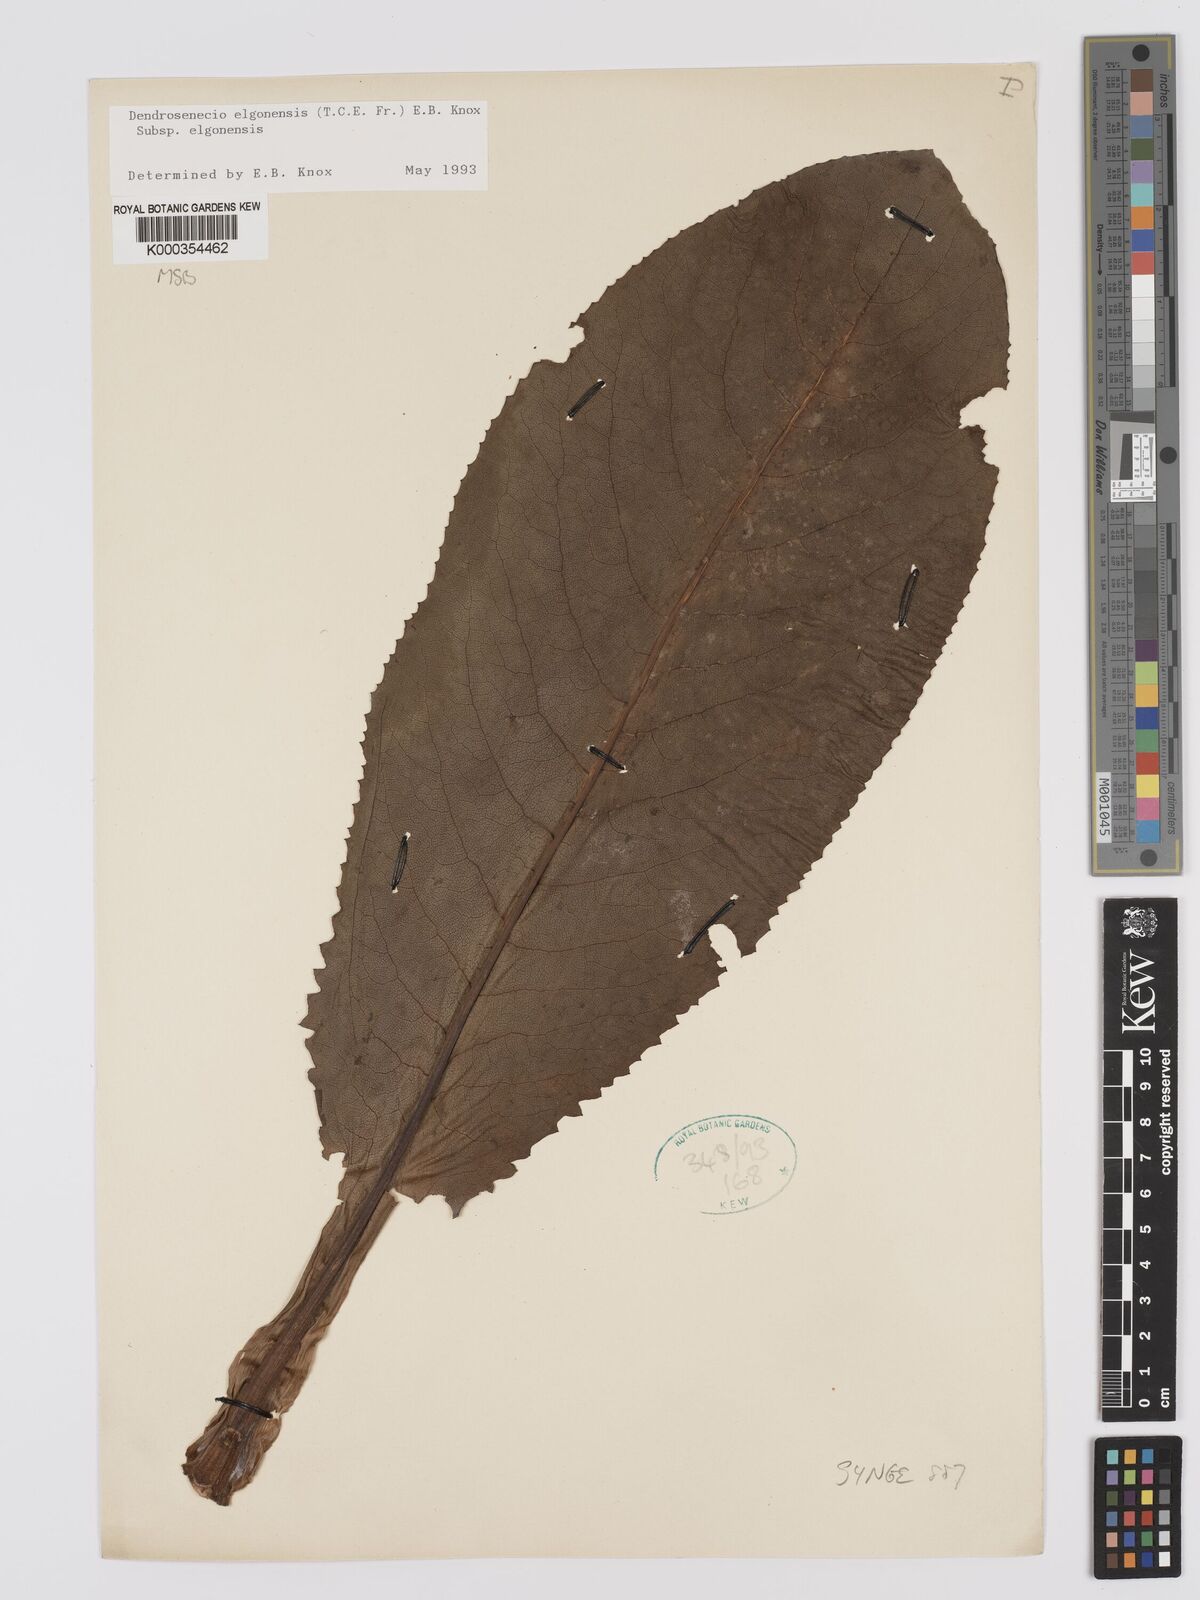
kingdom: Plantae
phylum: Tracheophyta
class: Magnoliopsida
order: Asterales
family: Asteraceae
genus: Dendrosenecio
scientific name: Dendrosenecio elgonensis
